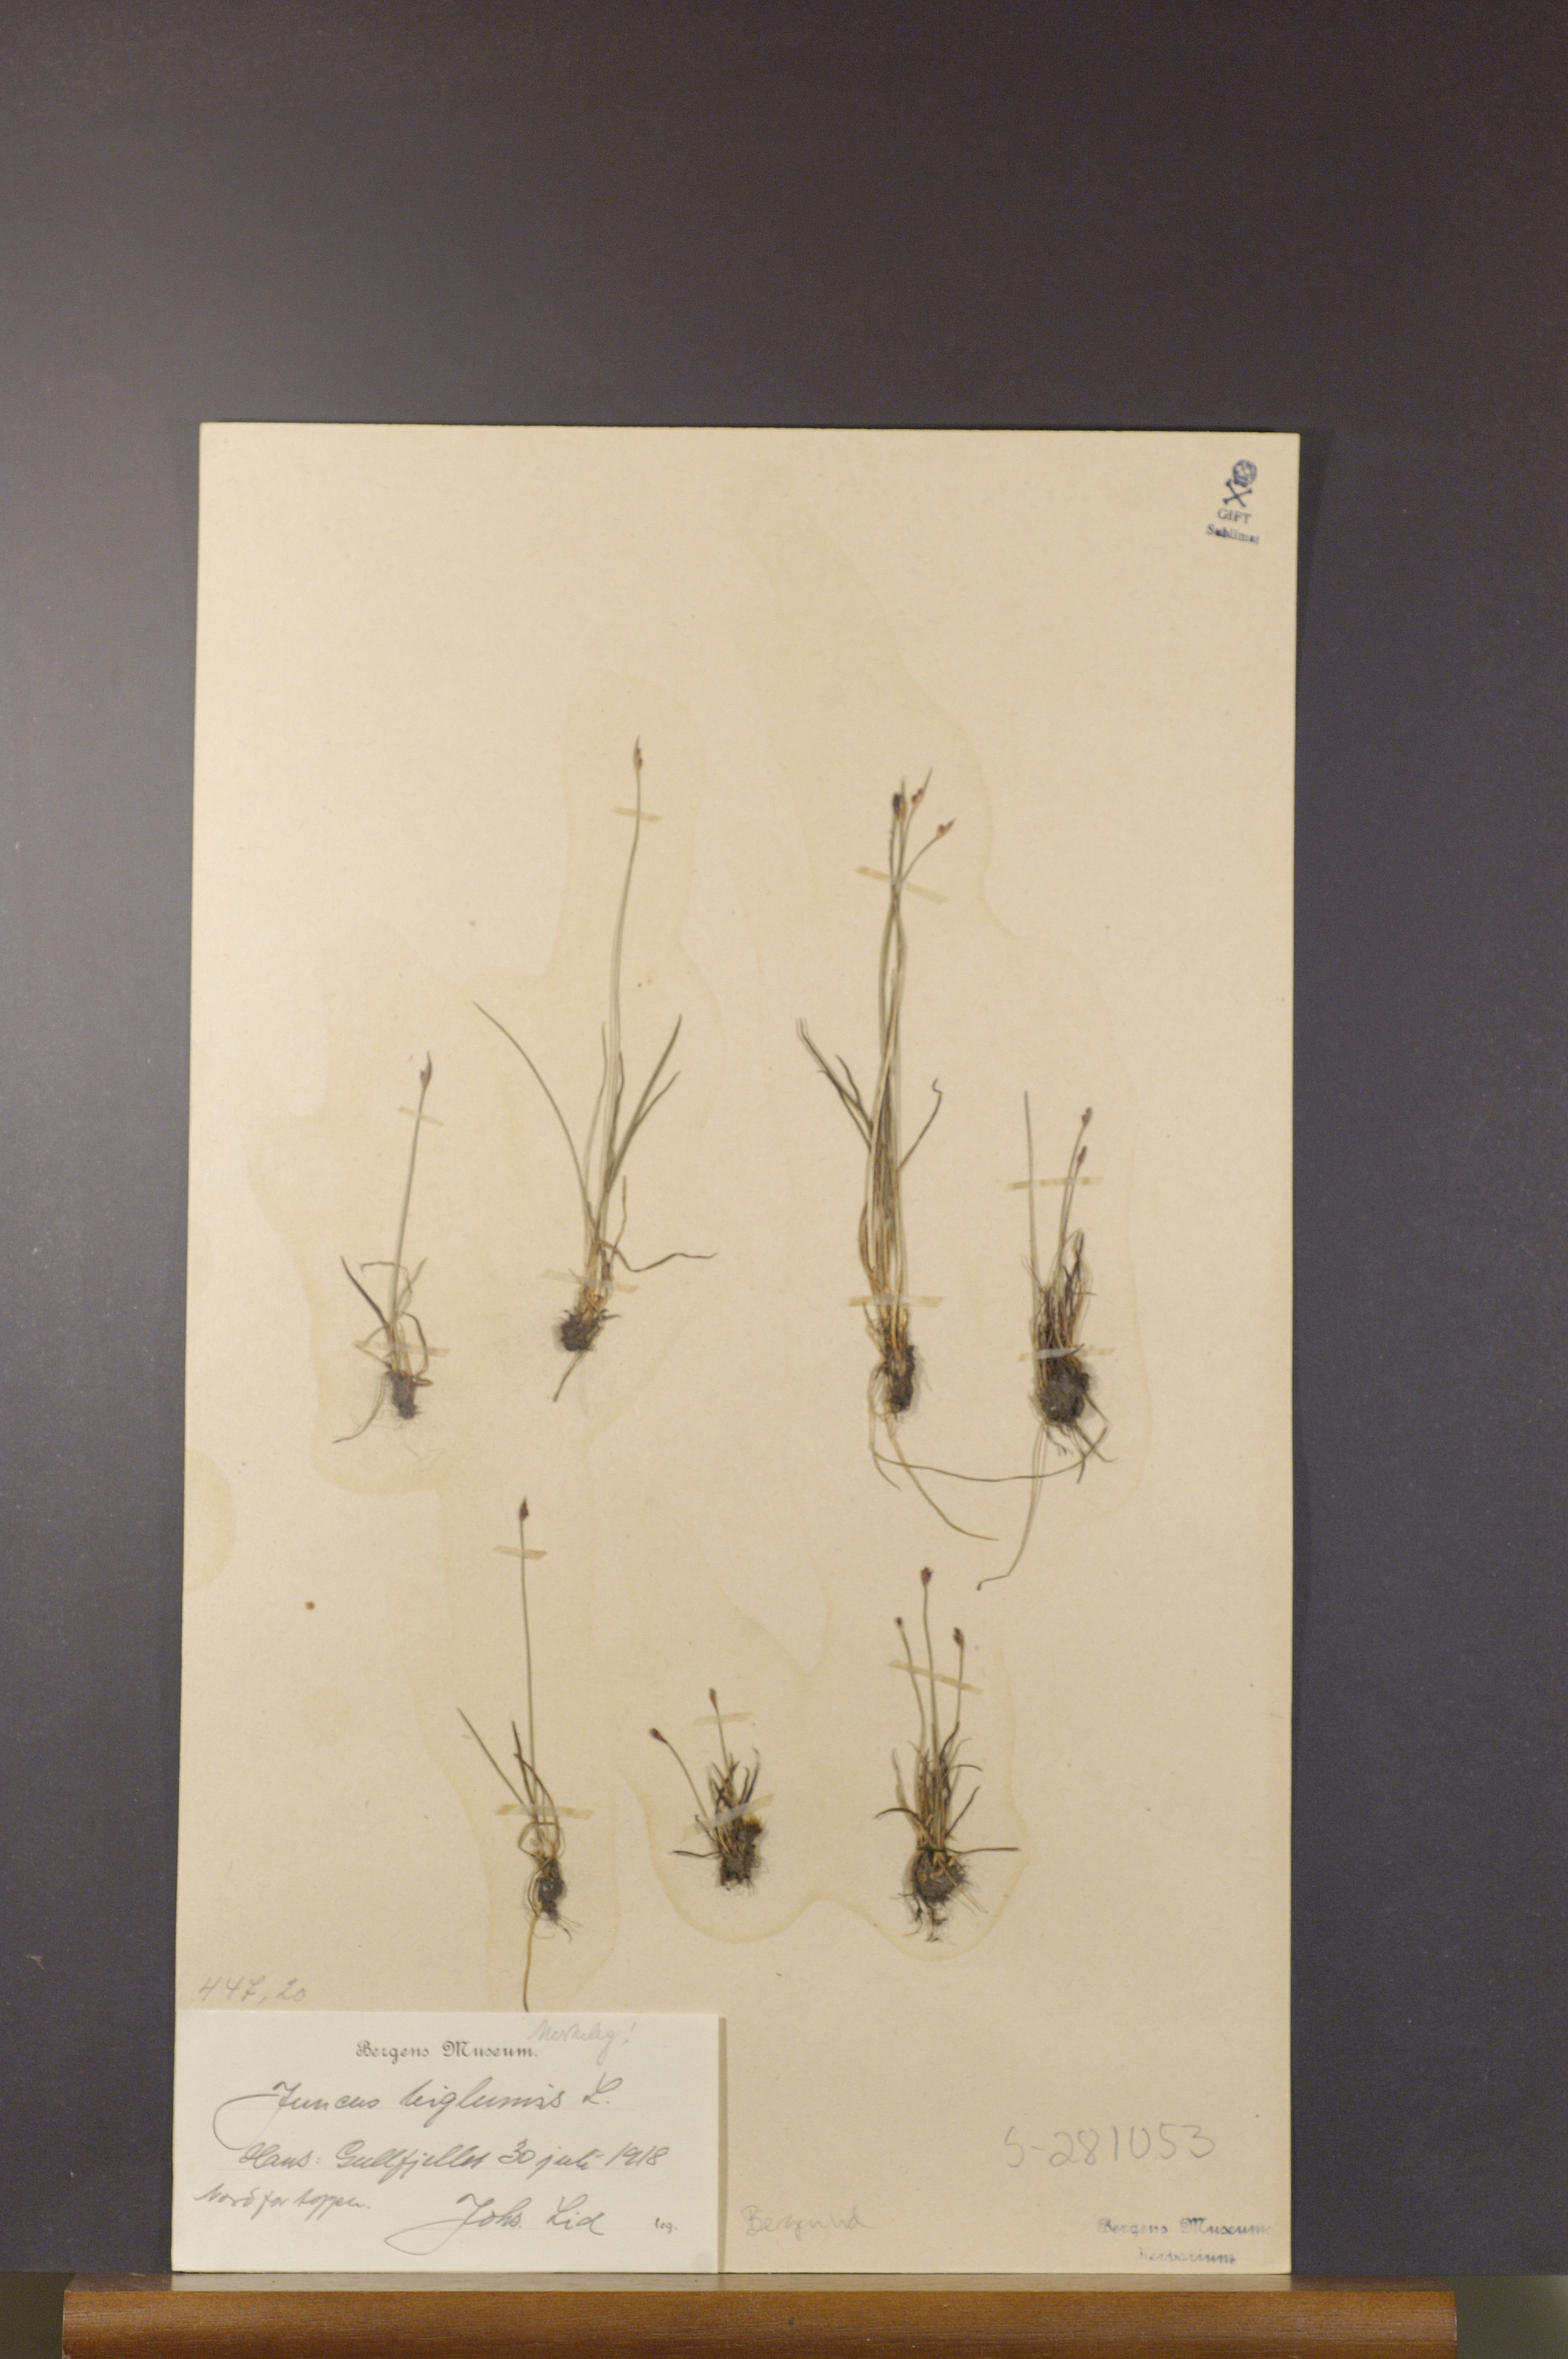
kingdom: Plantae
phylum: Tracheophyta
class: Liliopsida
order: Poales
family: Juncaceae
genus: Juncus
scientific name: Juncus biglumis
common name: Two-flowered rush
